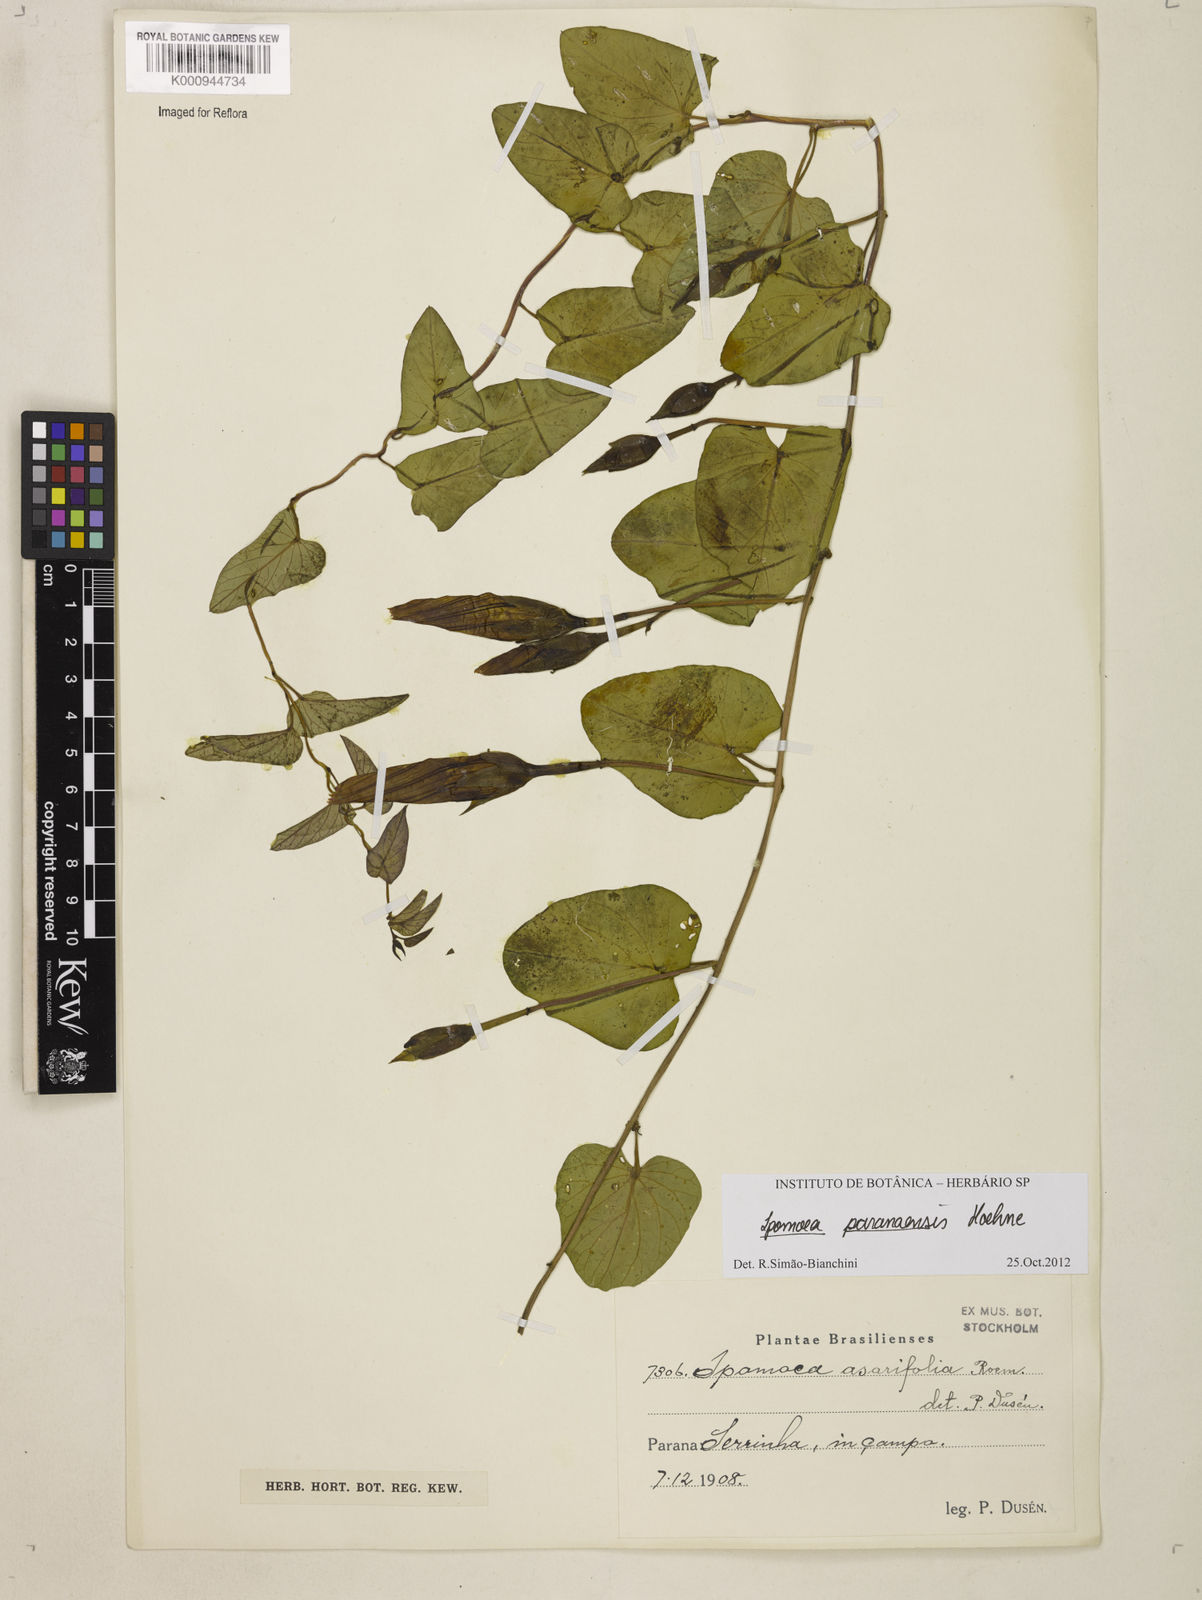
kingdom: Plantae
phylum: Tracheophyta
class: Magnoliopsida
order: Solanales
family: Convolvulaceae
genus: Ipomoea
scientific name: Ipomoea paranaensis
